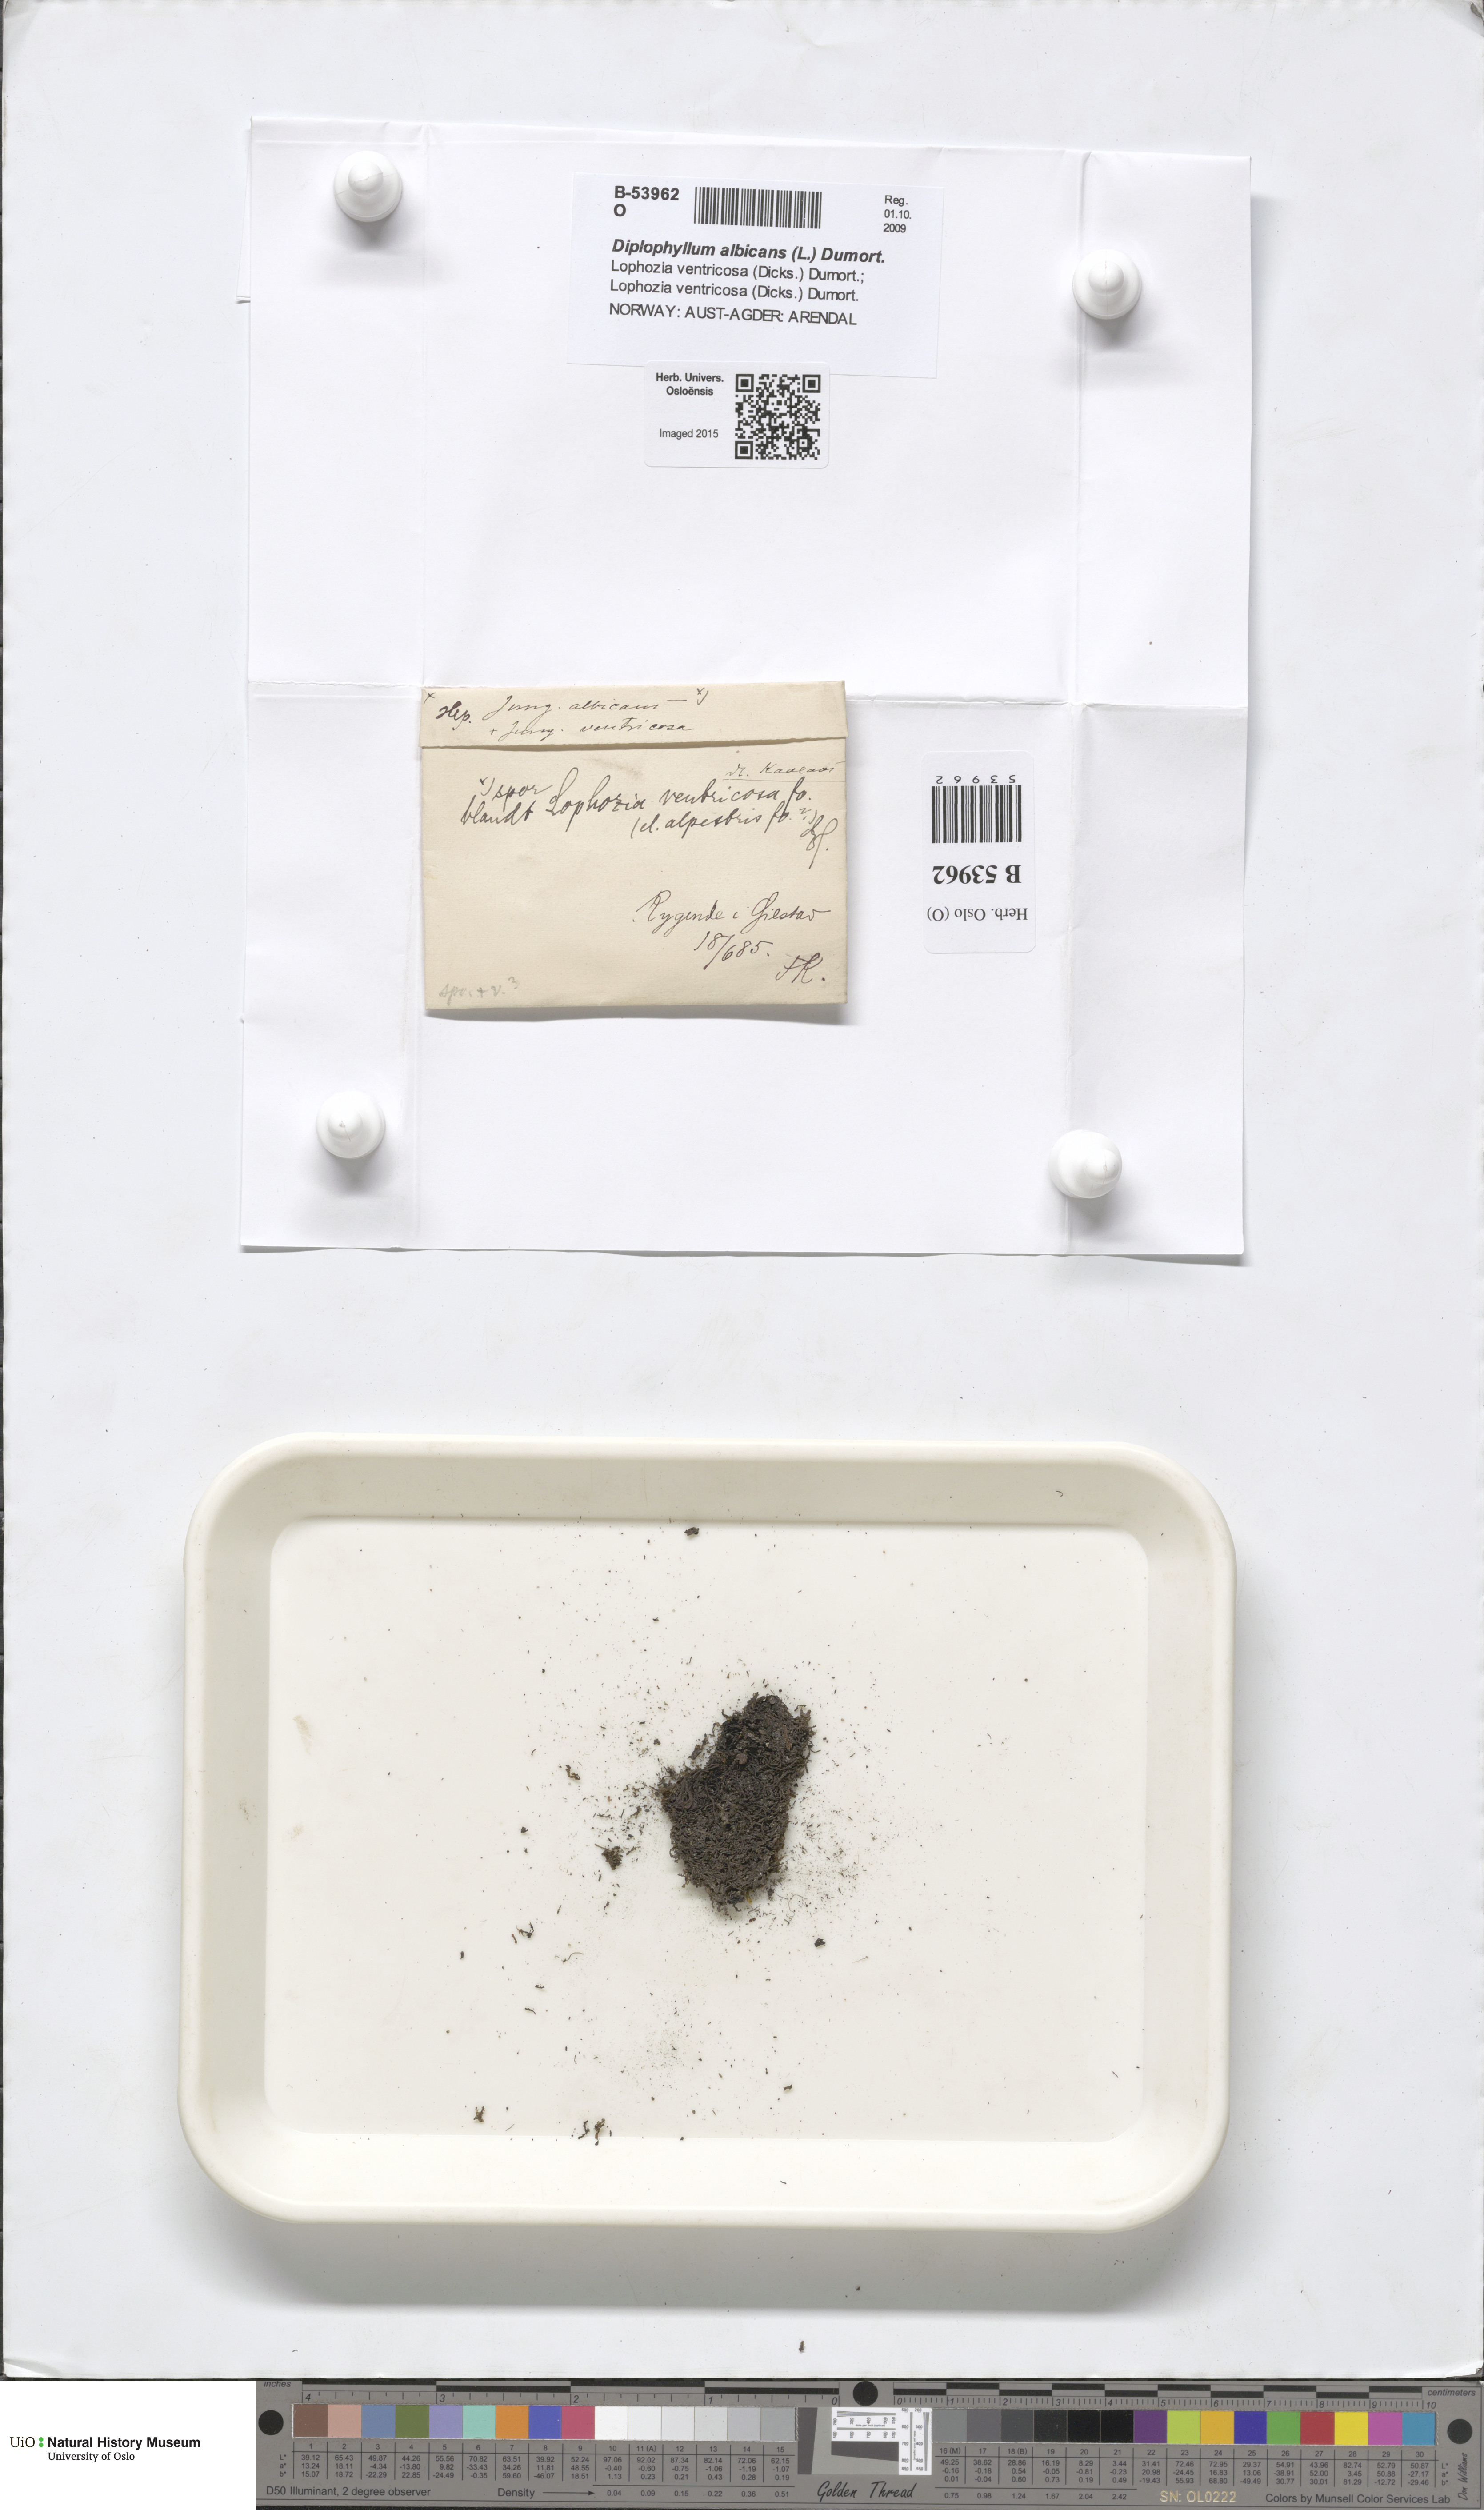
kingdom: Plantae
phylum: Marchantiophyta
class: Jungermanniopsida
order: Jungermanniales
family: Scapaniaceae
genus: Diplophyllum
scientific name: Diplophyllum albicans
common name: White earwort
